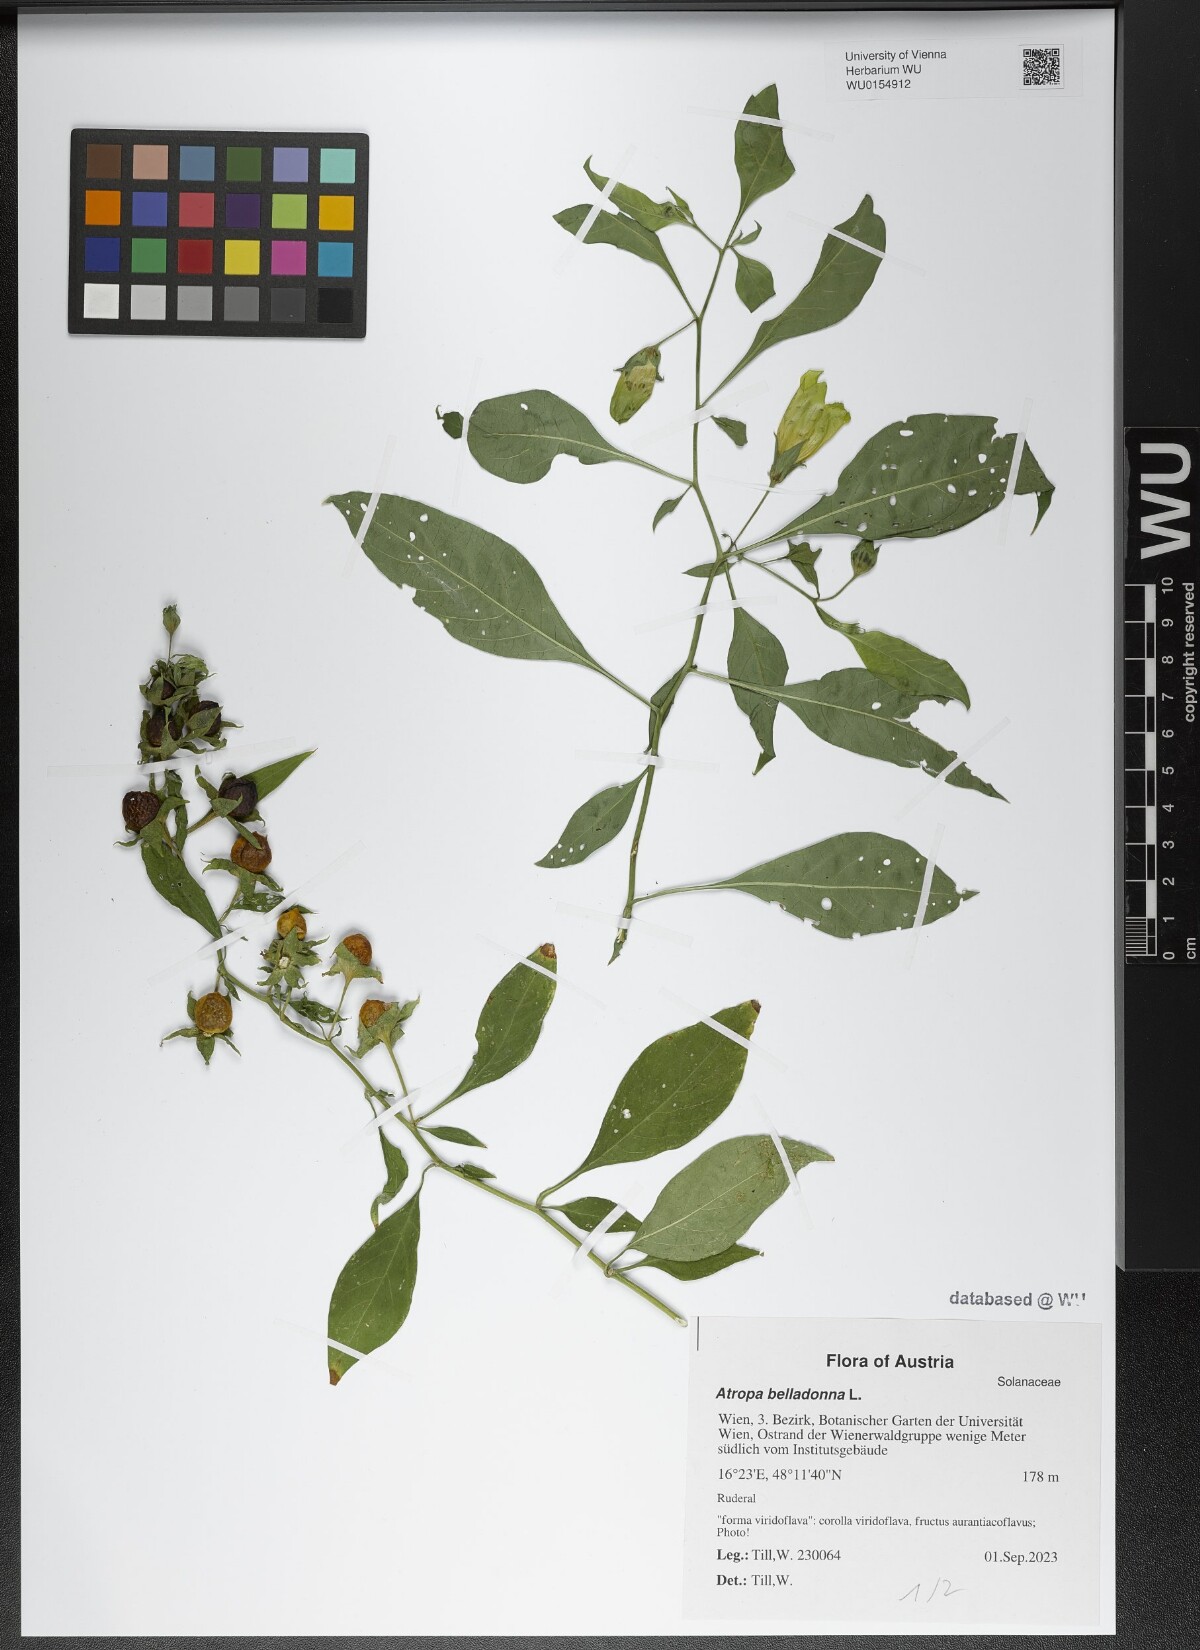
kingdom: Plantae
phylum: Tracheophyta
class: Magnoliopsida
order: Solanales
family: Solanaceae
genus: Atropa
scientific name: Atropa belladonna
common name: Deadly nightshade
